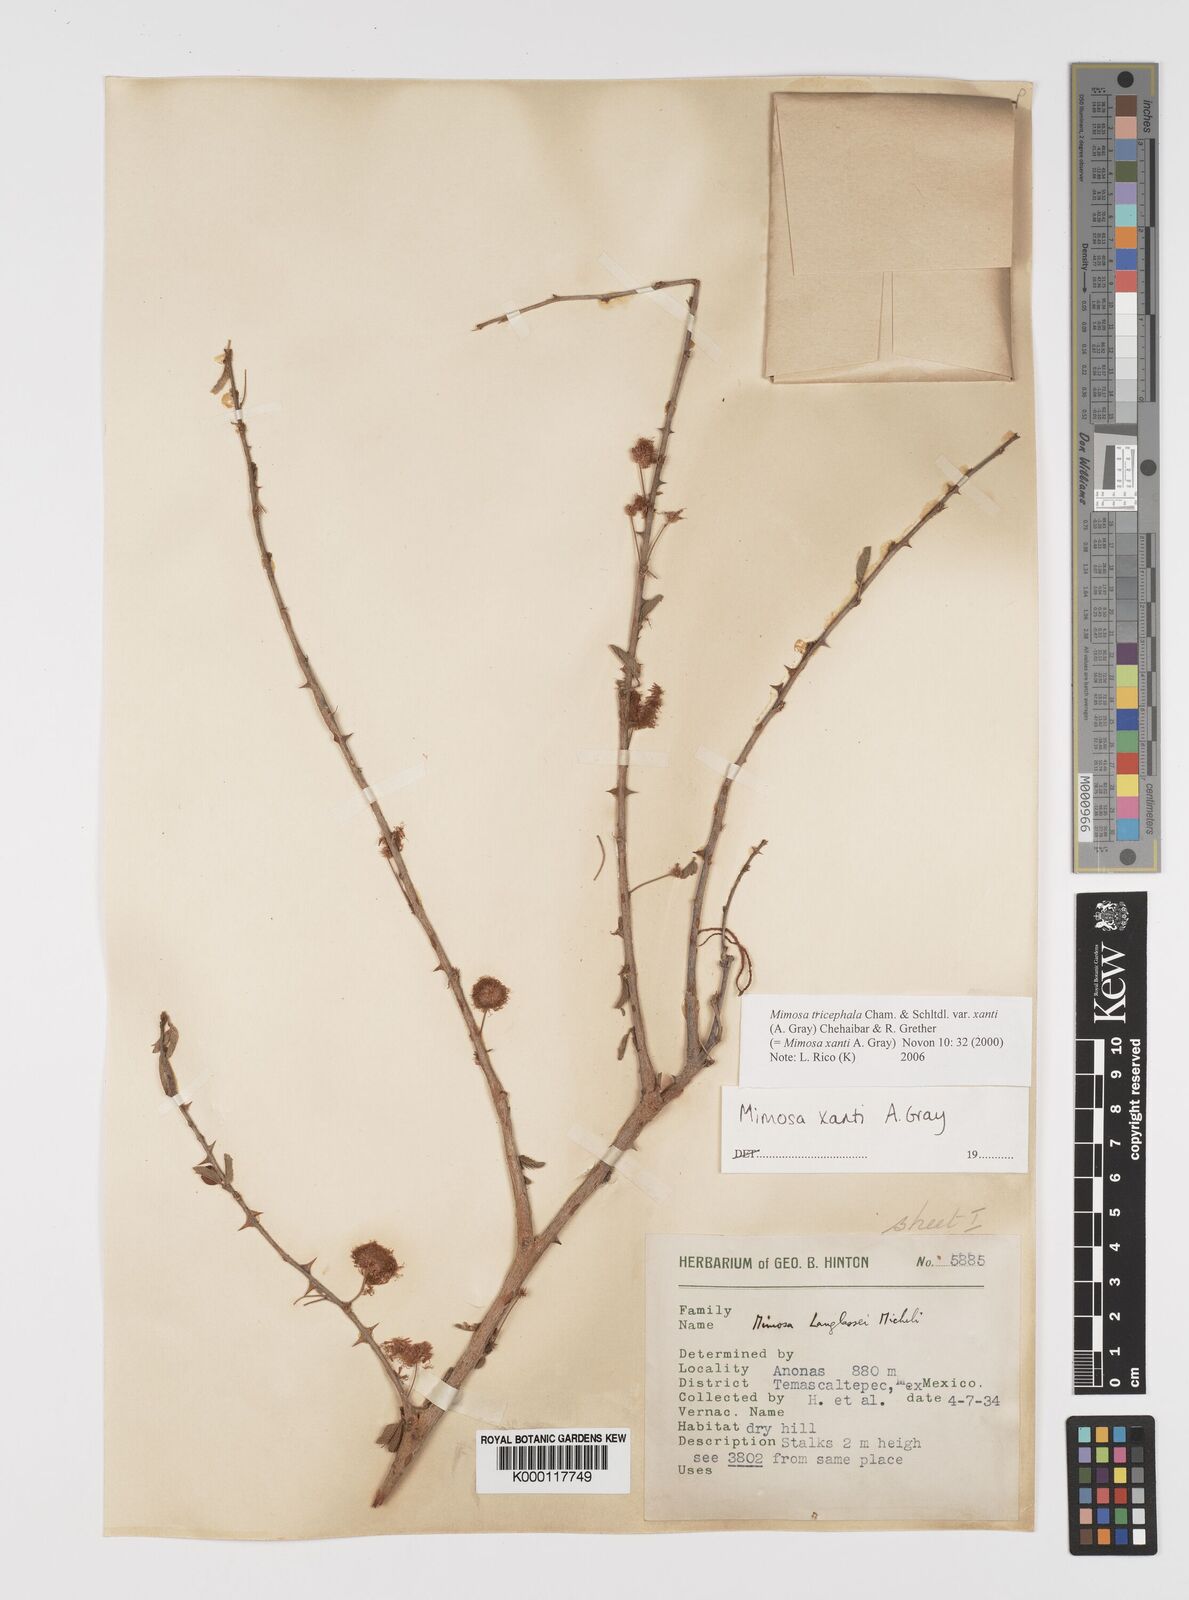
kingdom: Plantae
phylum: Tracheophyta
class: Magnoliopsida
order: Fabales
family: Fabaceae
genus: Mimosa
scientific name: Mimosa tricephala
